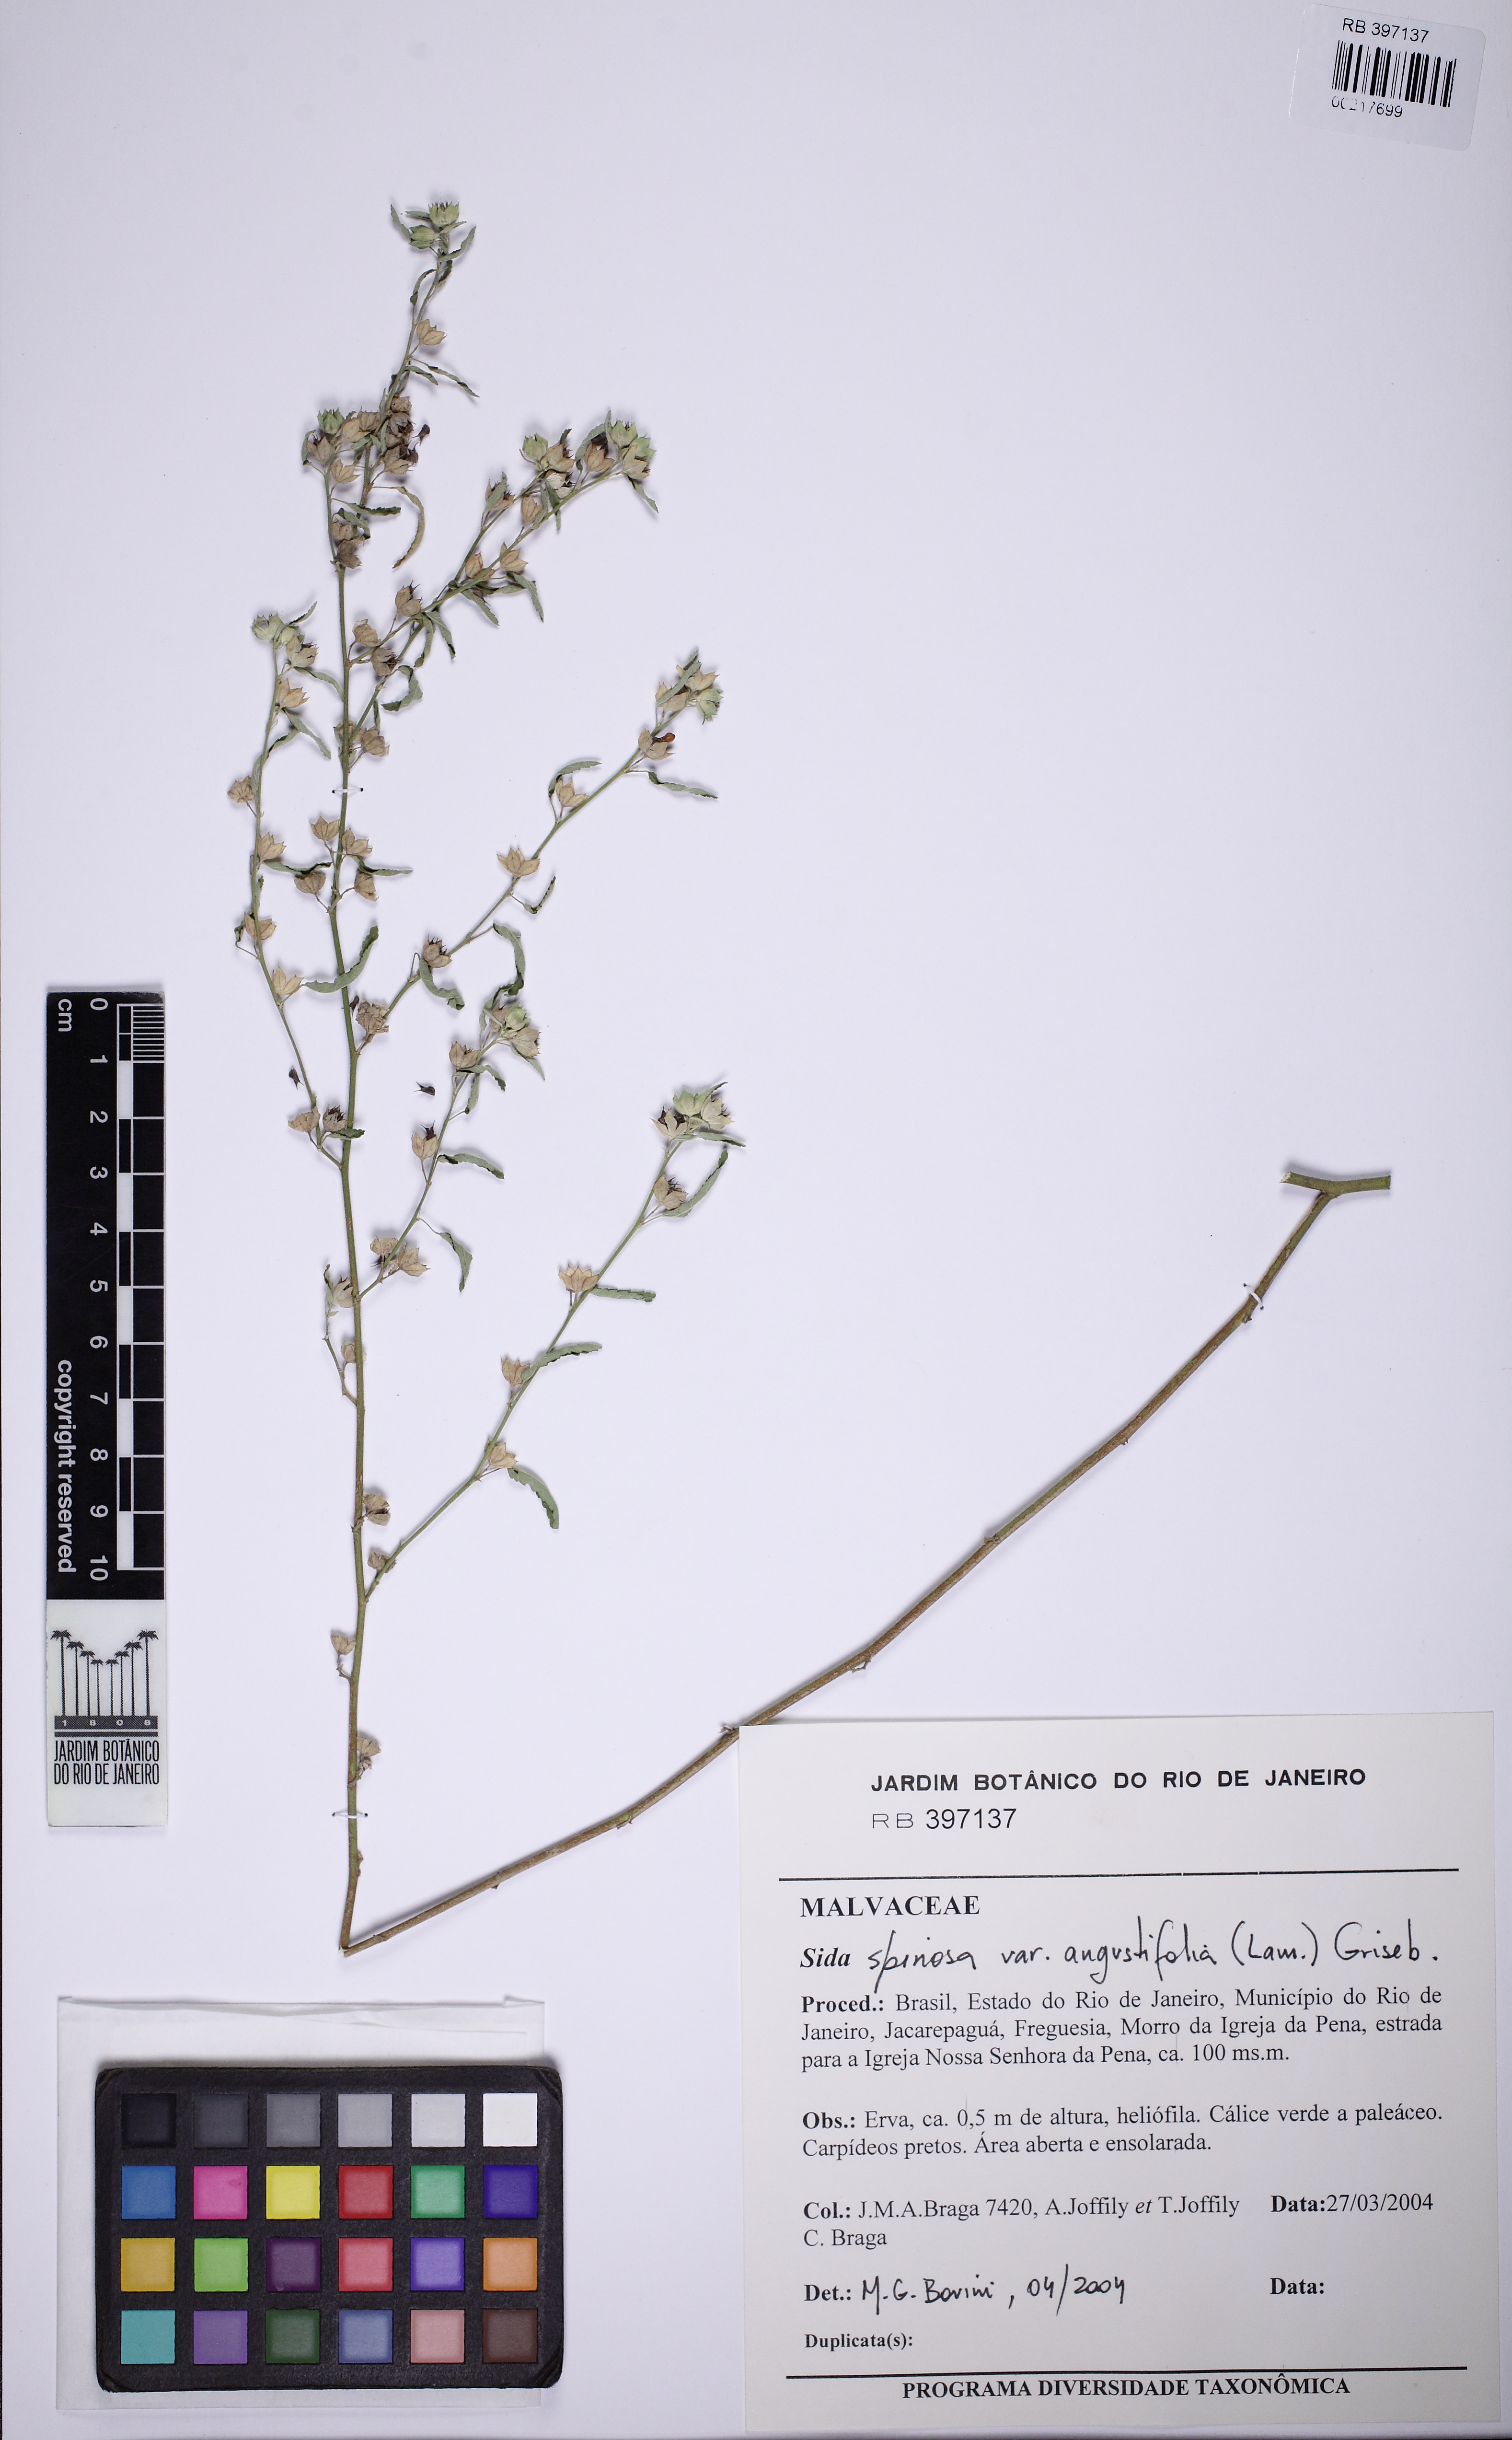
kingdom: Plantae
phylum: Tracheophyta
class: Magnoliopsida
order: Malvales
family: Malvaceae
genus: Sida
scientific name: Sida spinosa
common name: Prickly fanpetals
